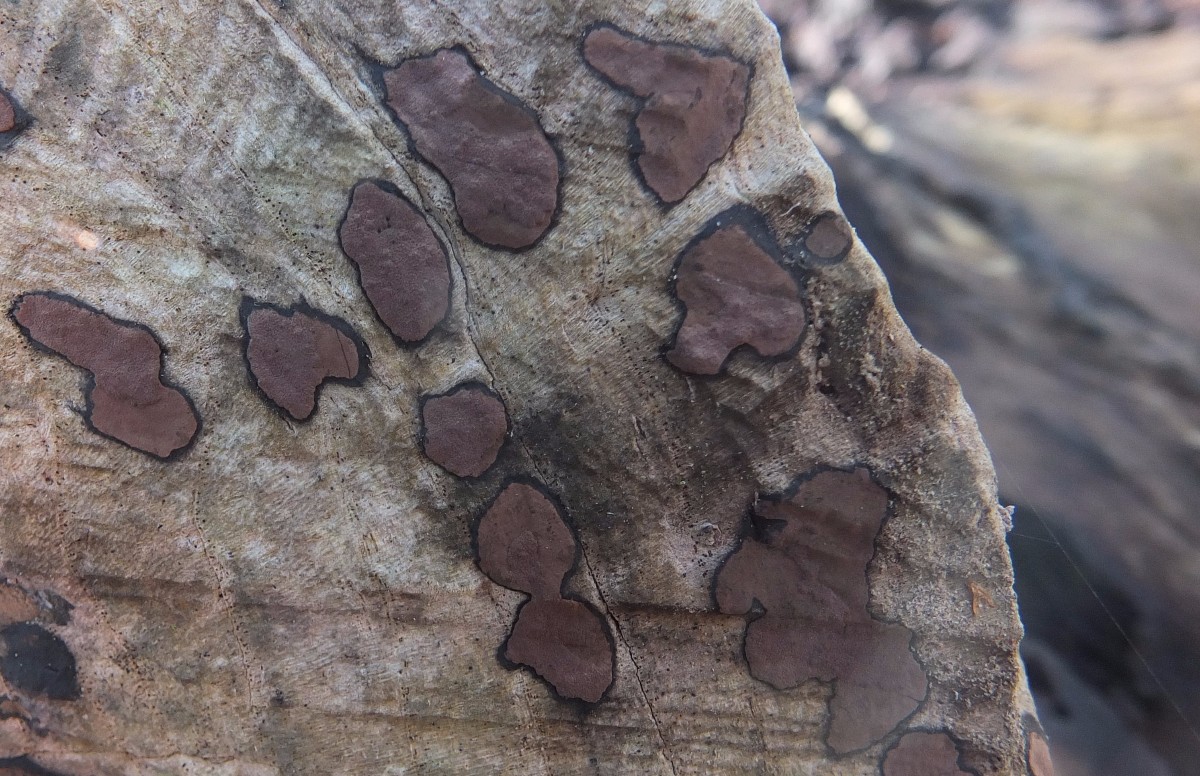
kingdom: Fungi
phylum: Ascomycota
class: Sordariomycetes
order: Xylariales
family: Hypoxylaceae
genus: Hypoxylon
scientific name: Hypoxylon petriniae
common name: nedsænket kulbær
